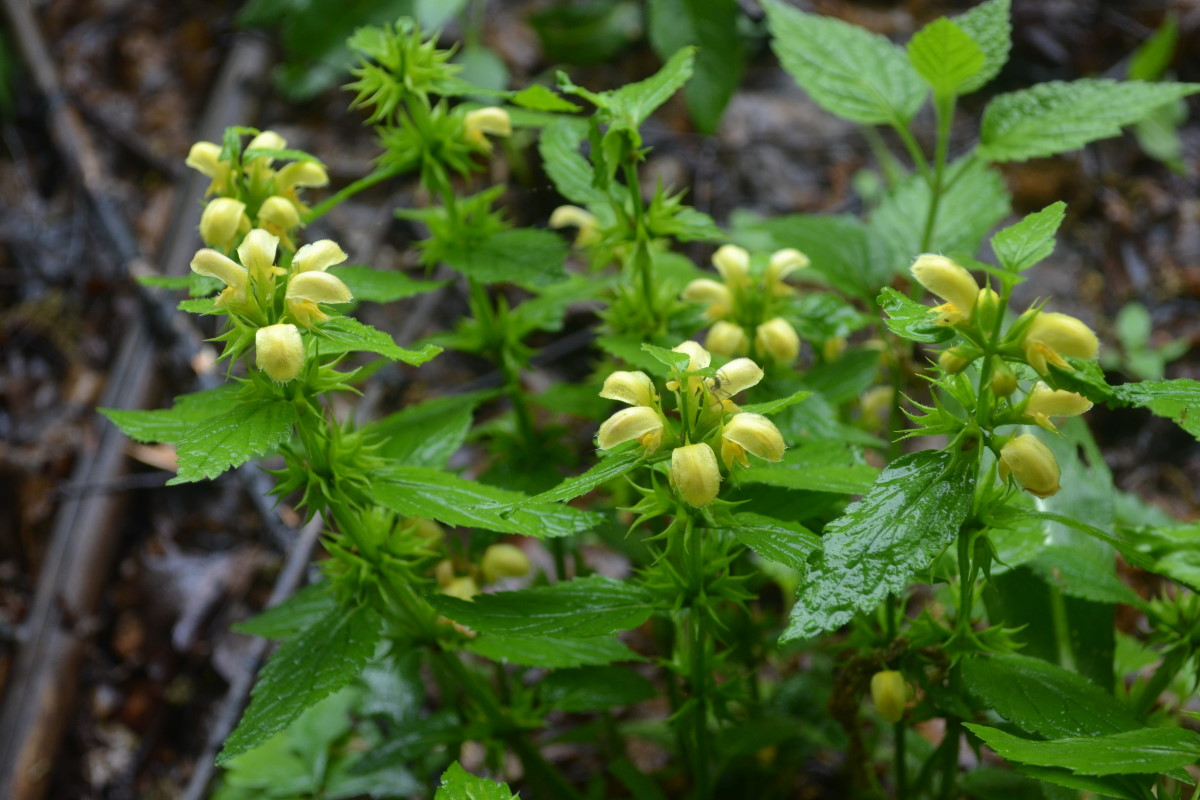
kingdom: Plantae
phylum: Tracheophyta
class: Magnoliopsida
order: Lamiales
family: Lamiaceae
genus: Lamium
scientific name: Lamium galeobdolon
